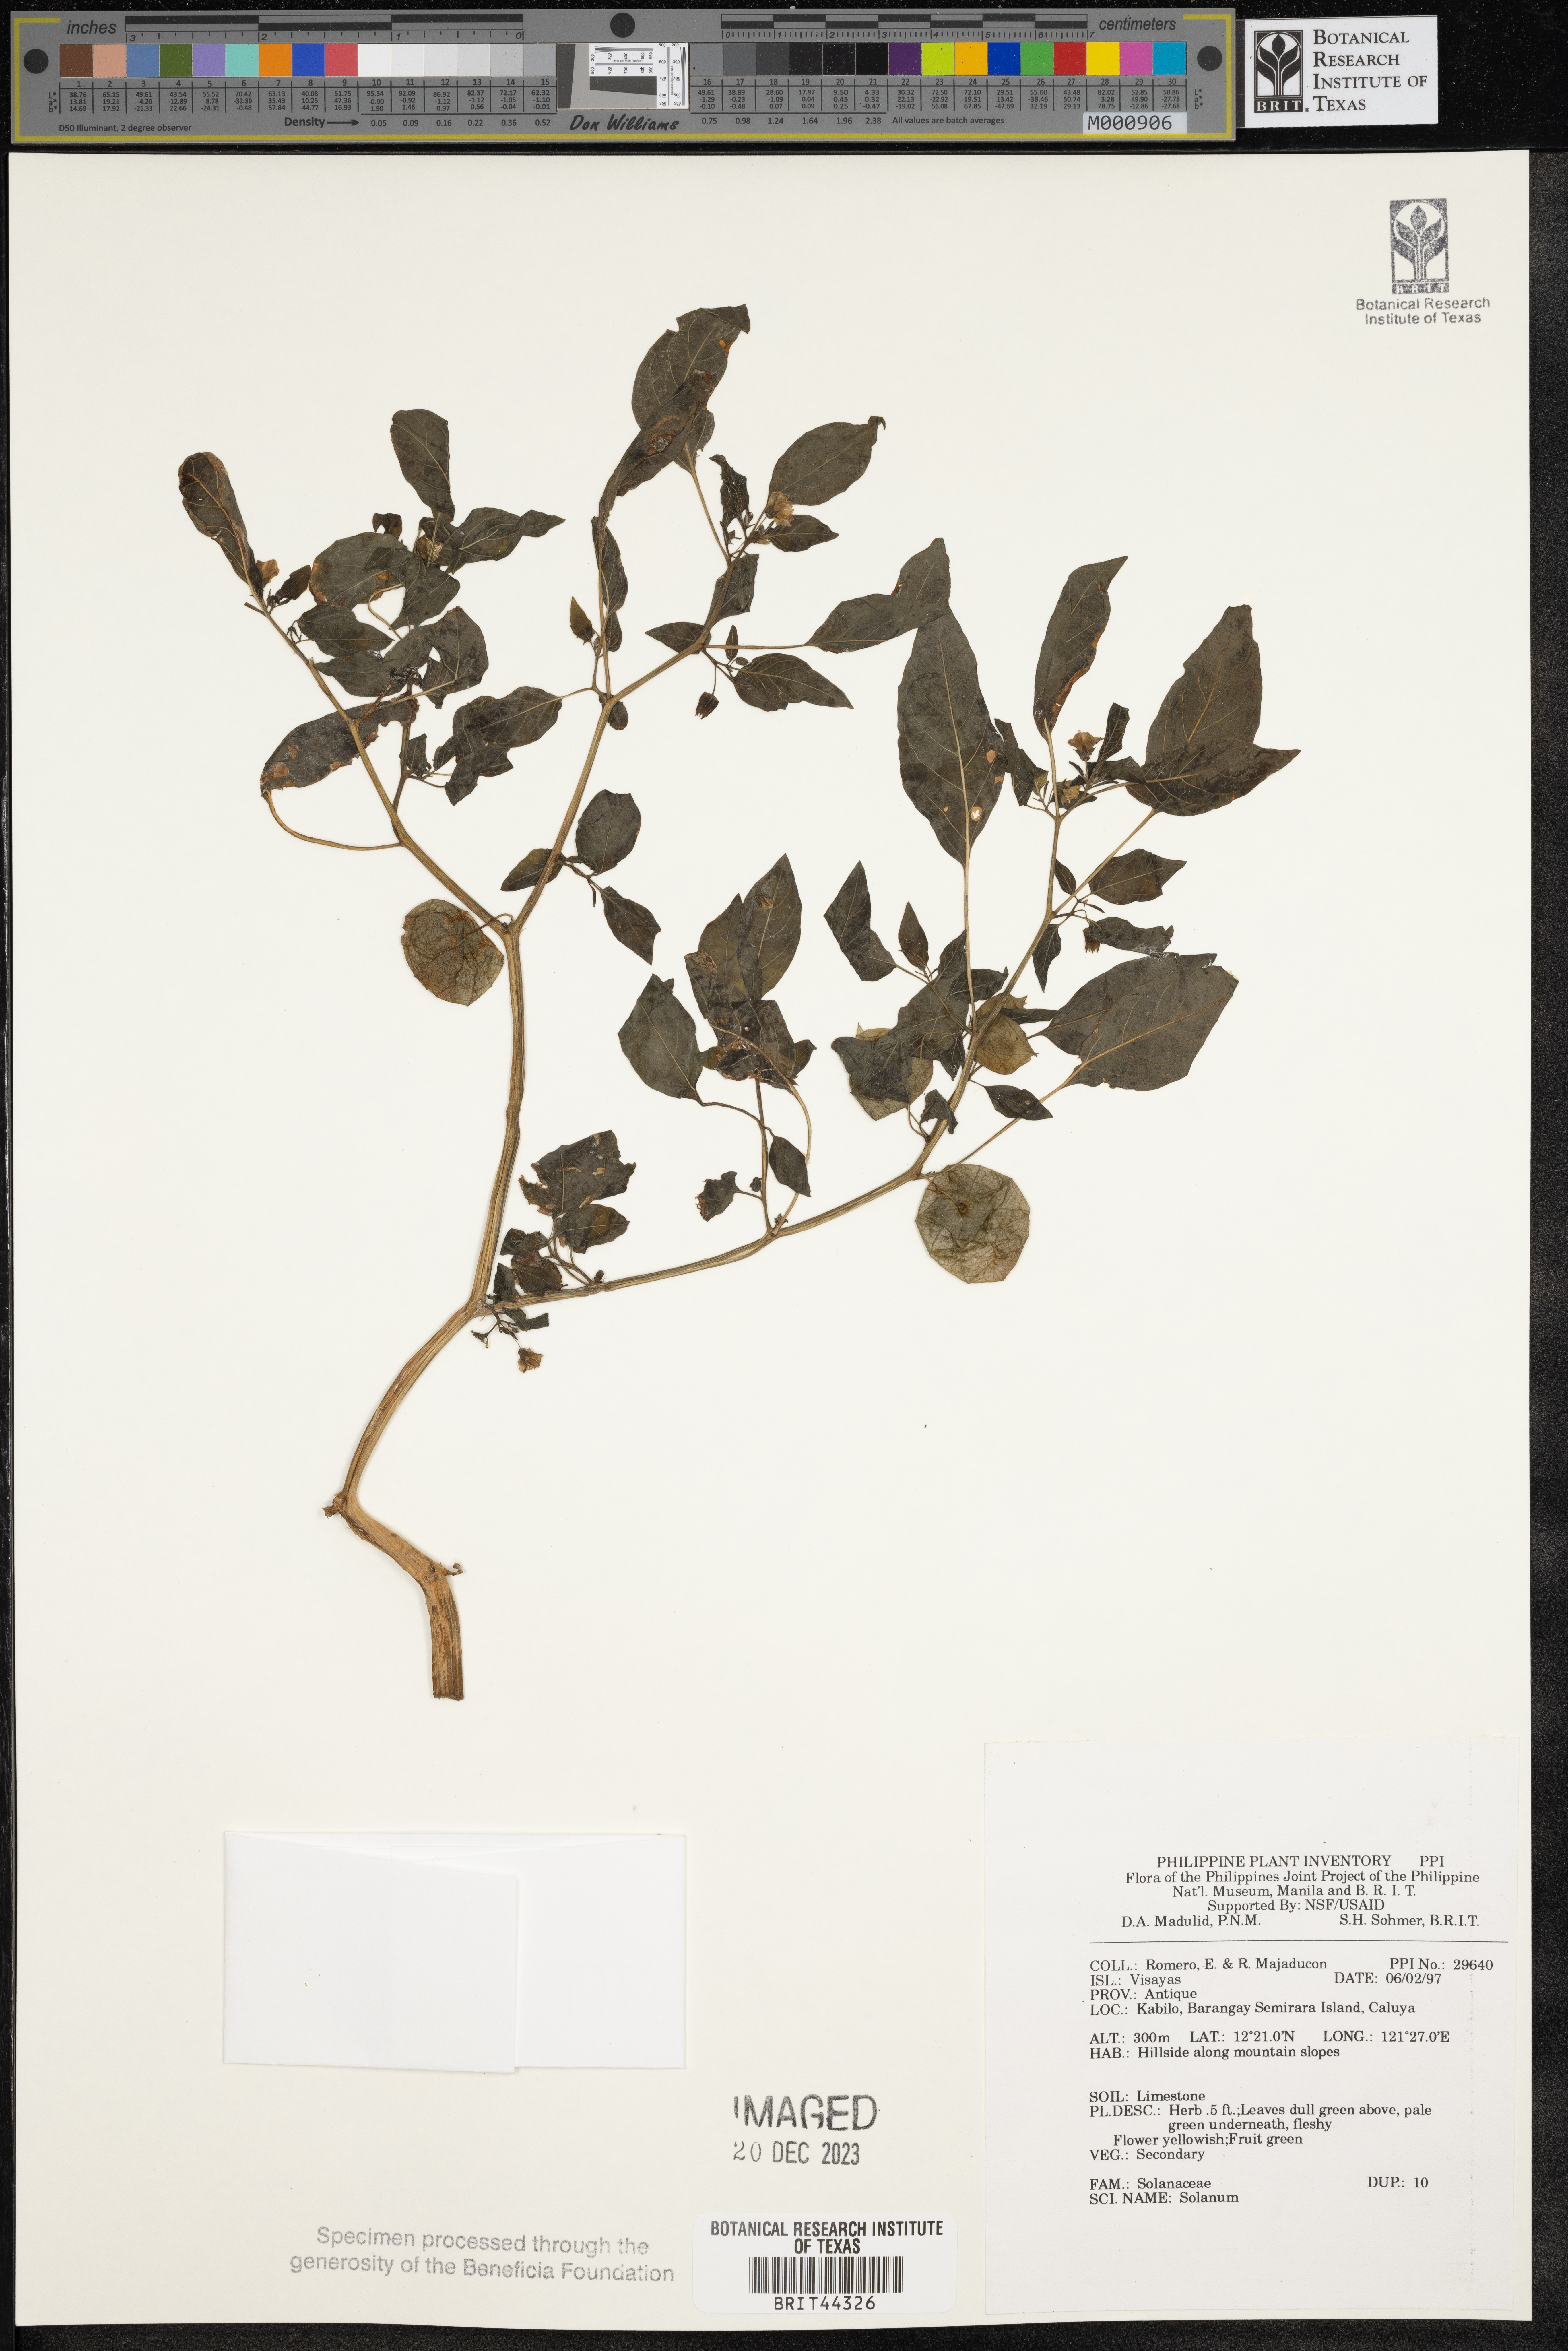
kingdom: Plantae
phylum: Tracheophyta
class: Magnoliopsida
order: Solanales
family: Solanaceae
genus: Solanum
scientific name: Solanum
